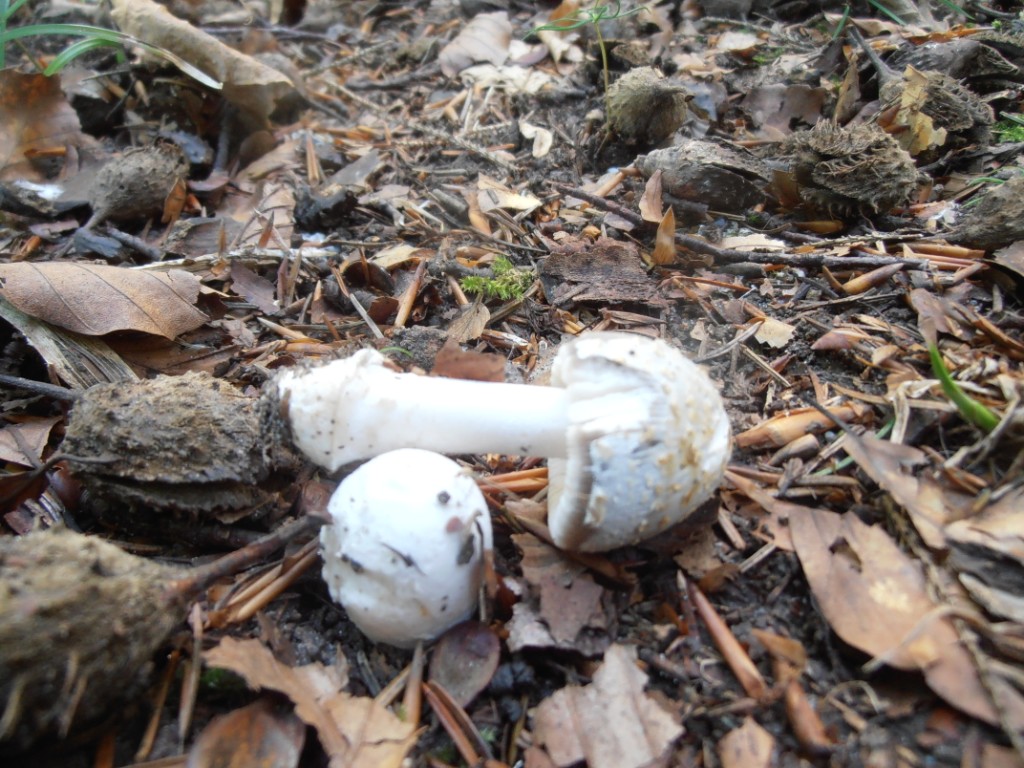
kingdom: Fungi
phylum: Basidiomycota
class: Agaricomycetes
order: Agaricales
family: Amanitaceae
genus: Amanita
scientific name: Amanita vaginata
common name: grå kam-fluesvamp
